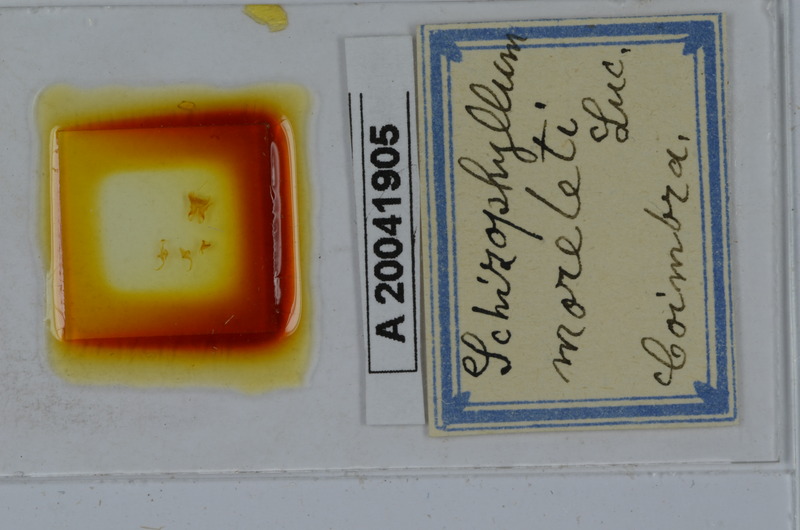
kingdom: Animalia
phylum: Arthropoda
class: Diplopoda
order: Julida
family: Julidae
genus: Ommatoiulus
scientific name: Ommatoiulus moreleti
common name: Portuguese millipede
